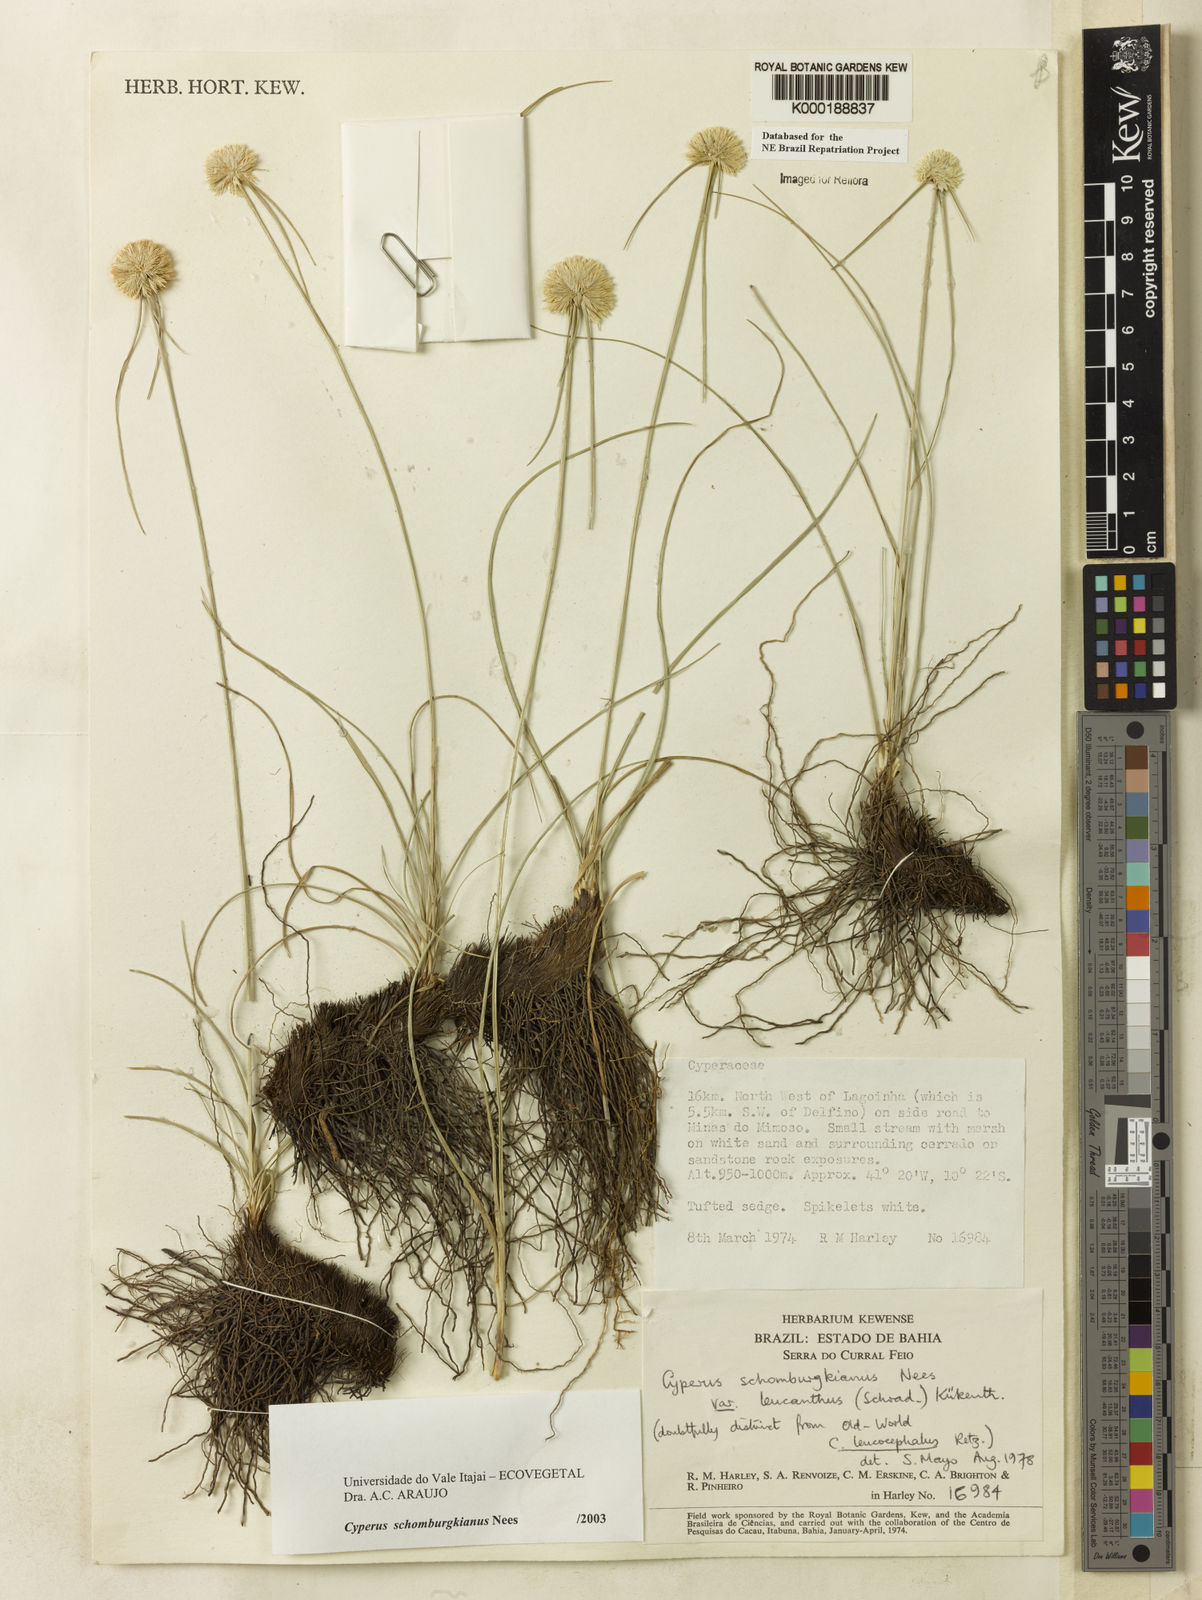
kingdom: Plantae
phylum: Tracheophyta
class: Liliopsida
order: Poales
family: Cyperaceae
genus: Cyperus
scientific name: Cyperus schomburgkianus
